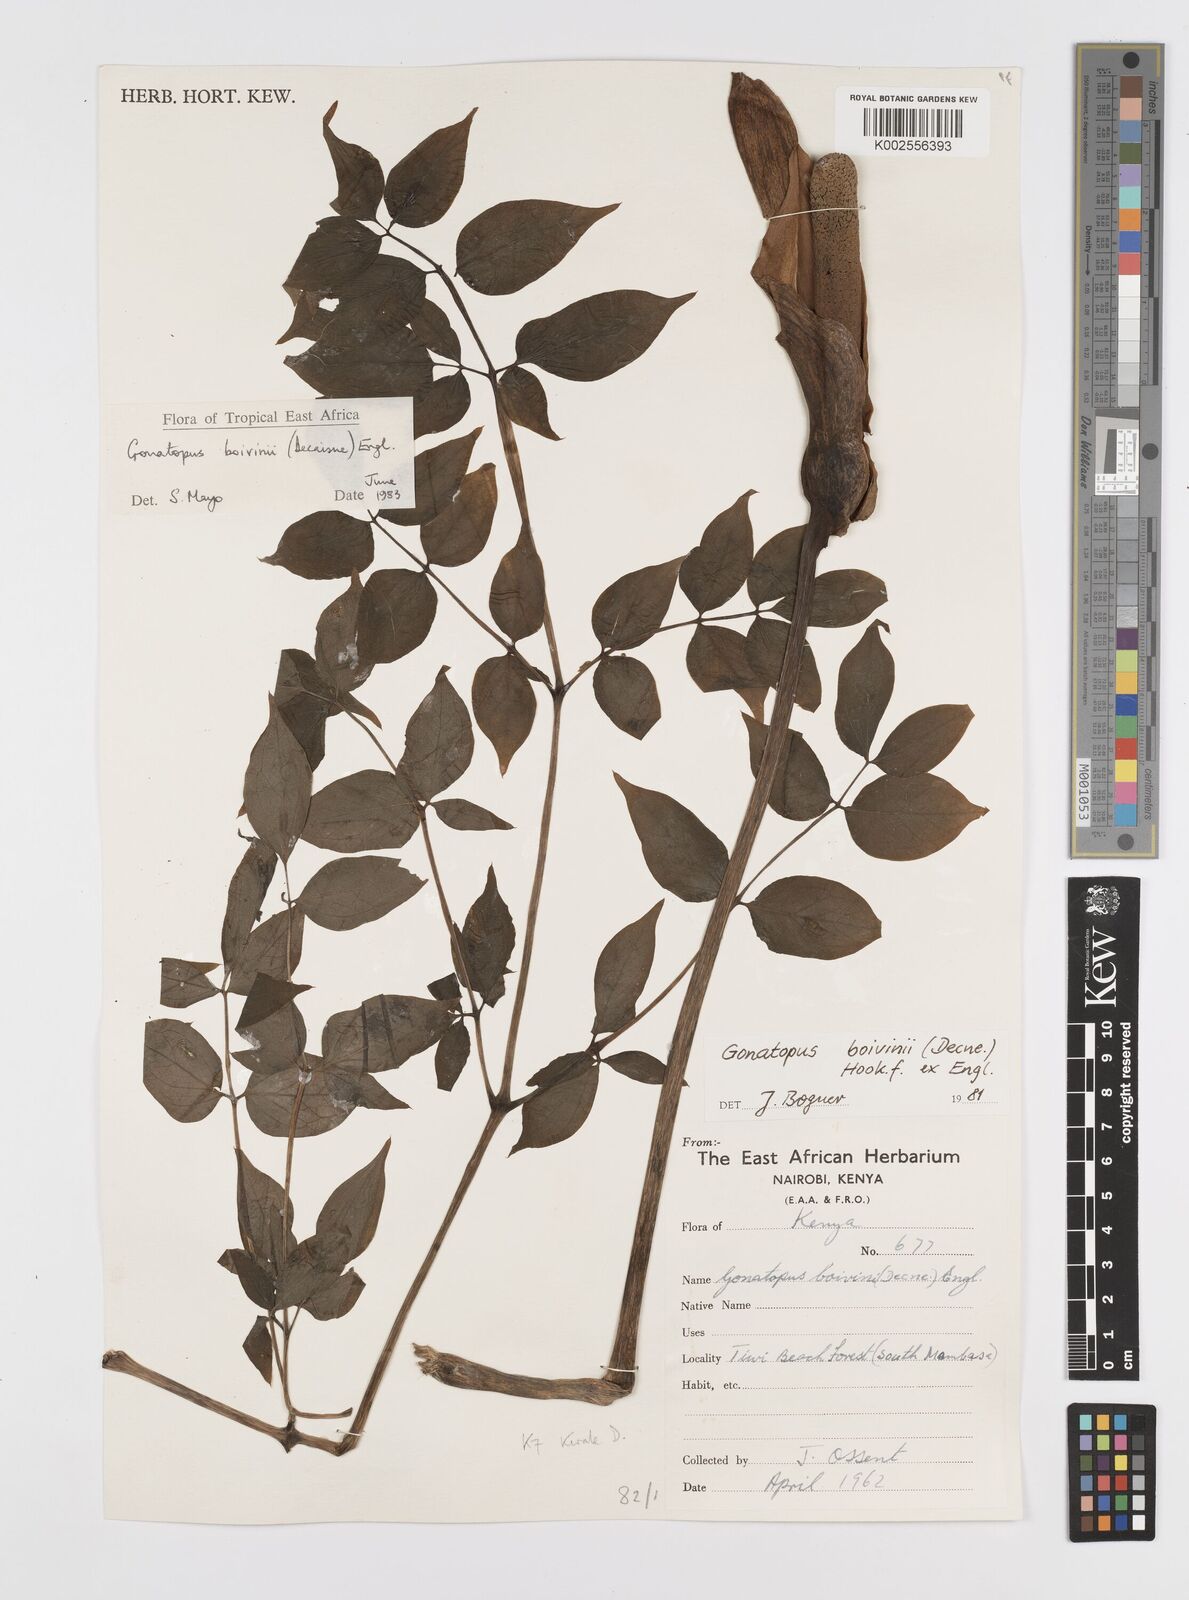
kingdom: Plantae
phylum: Tracheophyta
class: Liliopsida
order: Alismatales
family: Araceae
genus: Gonatopus
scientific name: Gonatopus boivinii
